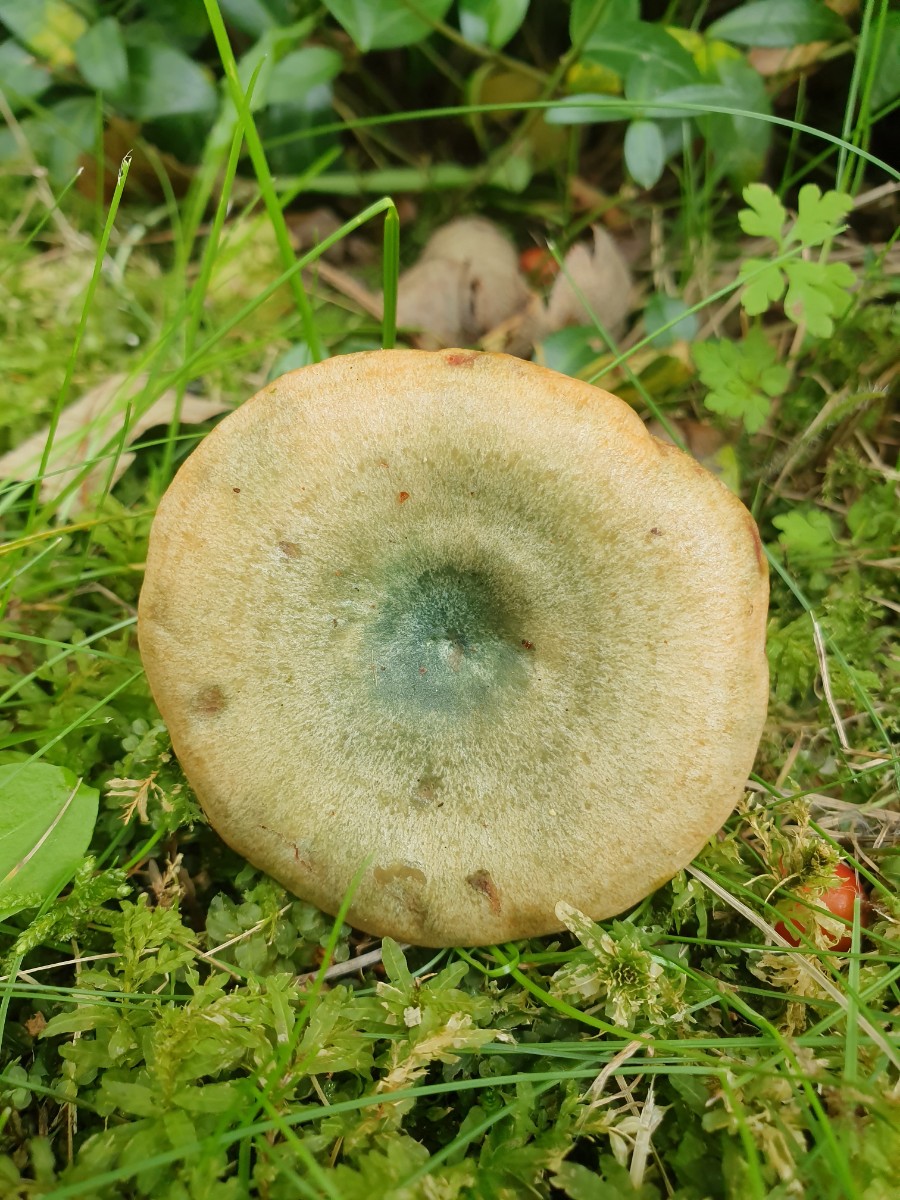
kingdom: Fungi
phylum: Basidiomycota
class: Agaricomycetes
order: Russulales
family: Russulaceae
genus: Lactarius
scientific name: Lactarius deterrimus
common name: gran-mælkehat
